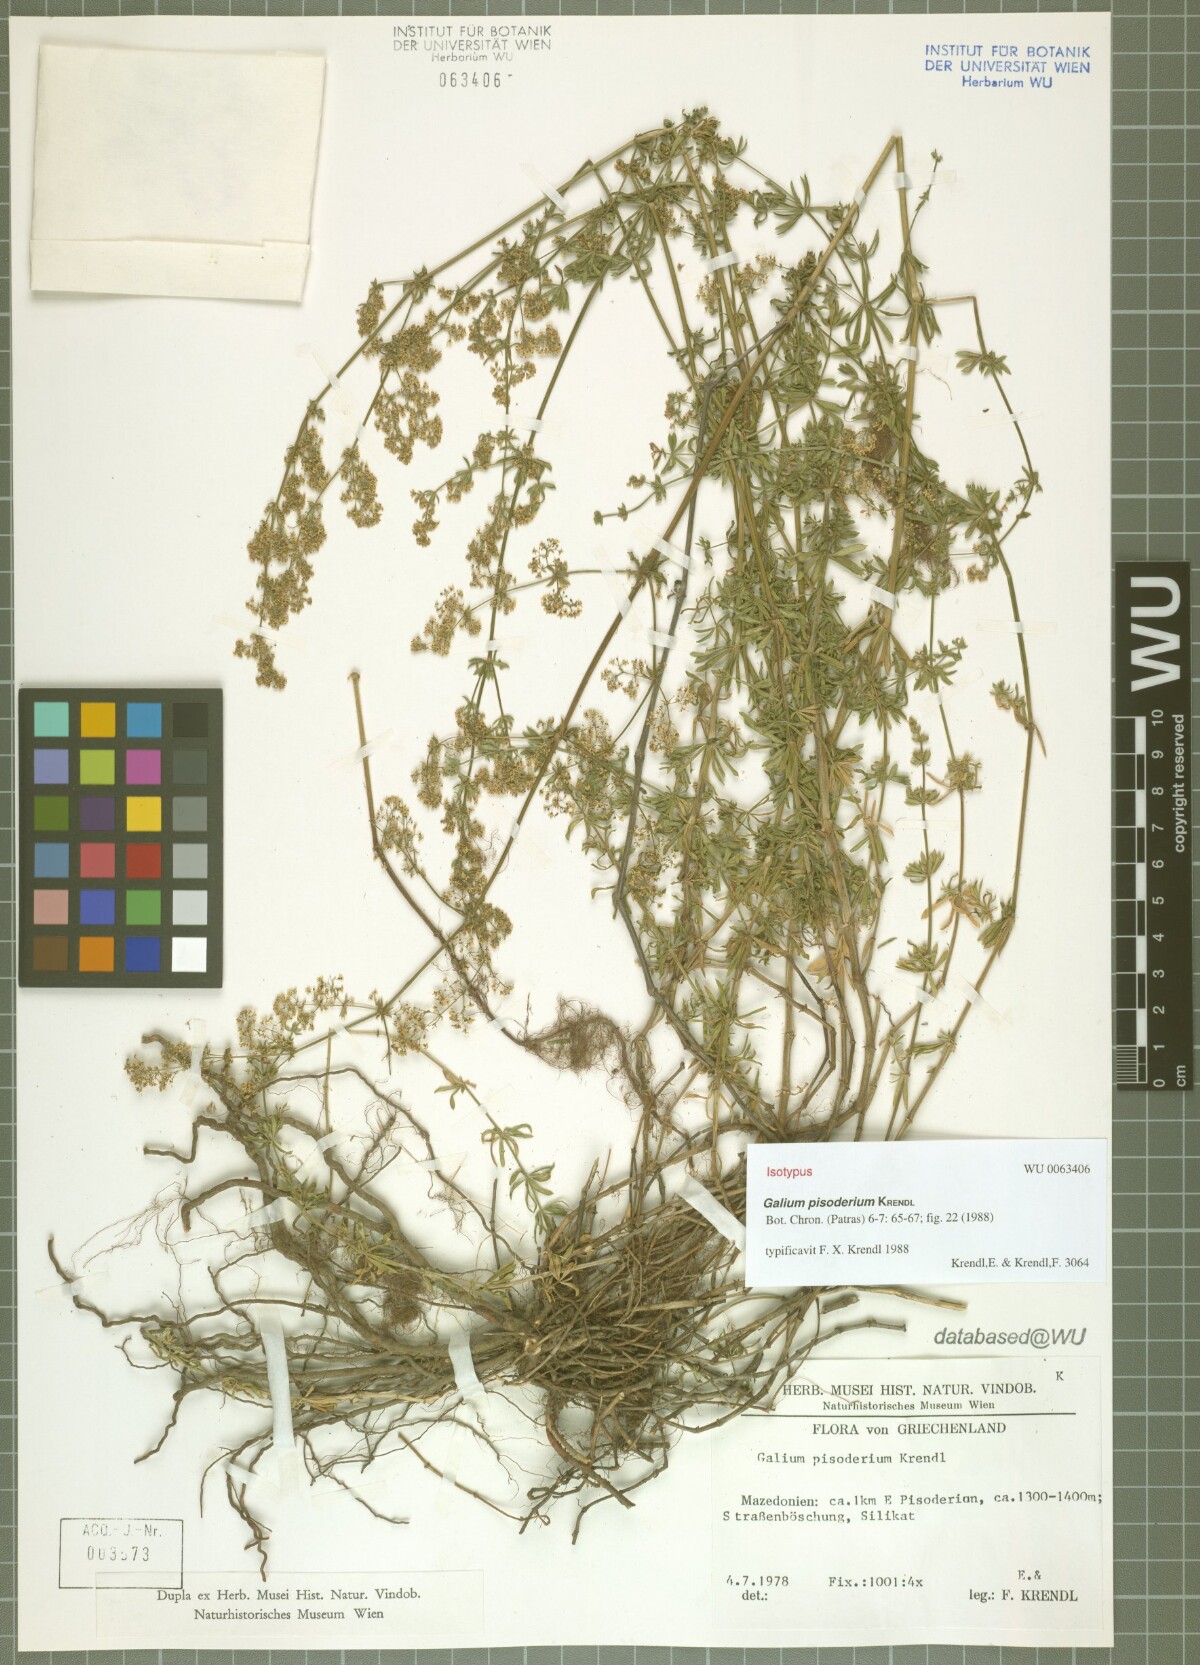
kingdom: Plantae
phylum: Tracheophyta
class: Magnoliopsida
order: Gentianales
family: Rubiaceae
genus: Galium
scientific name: Galium pisoderium
